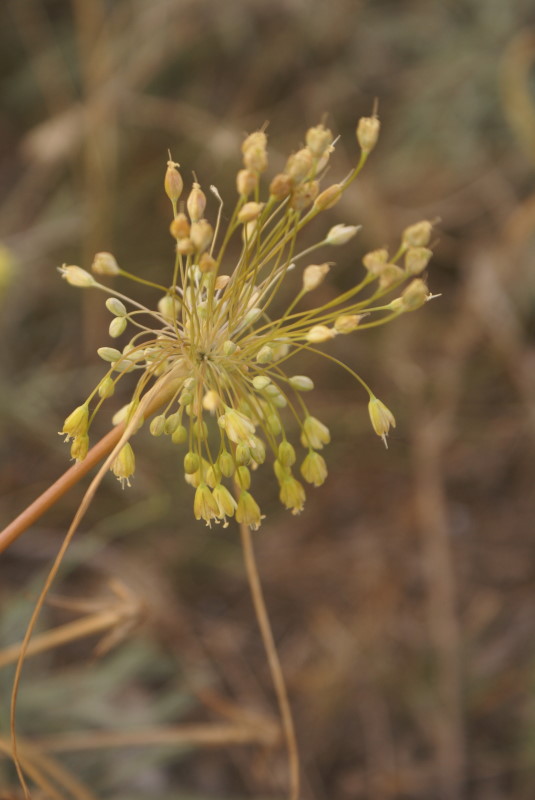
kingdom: Plantae
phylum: Tracheophyta
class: Liliopsida
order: Asparagales
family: Amaryllidaceae
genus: Allium
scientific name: Allium praescissum
